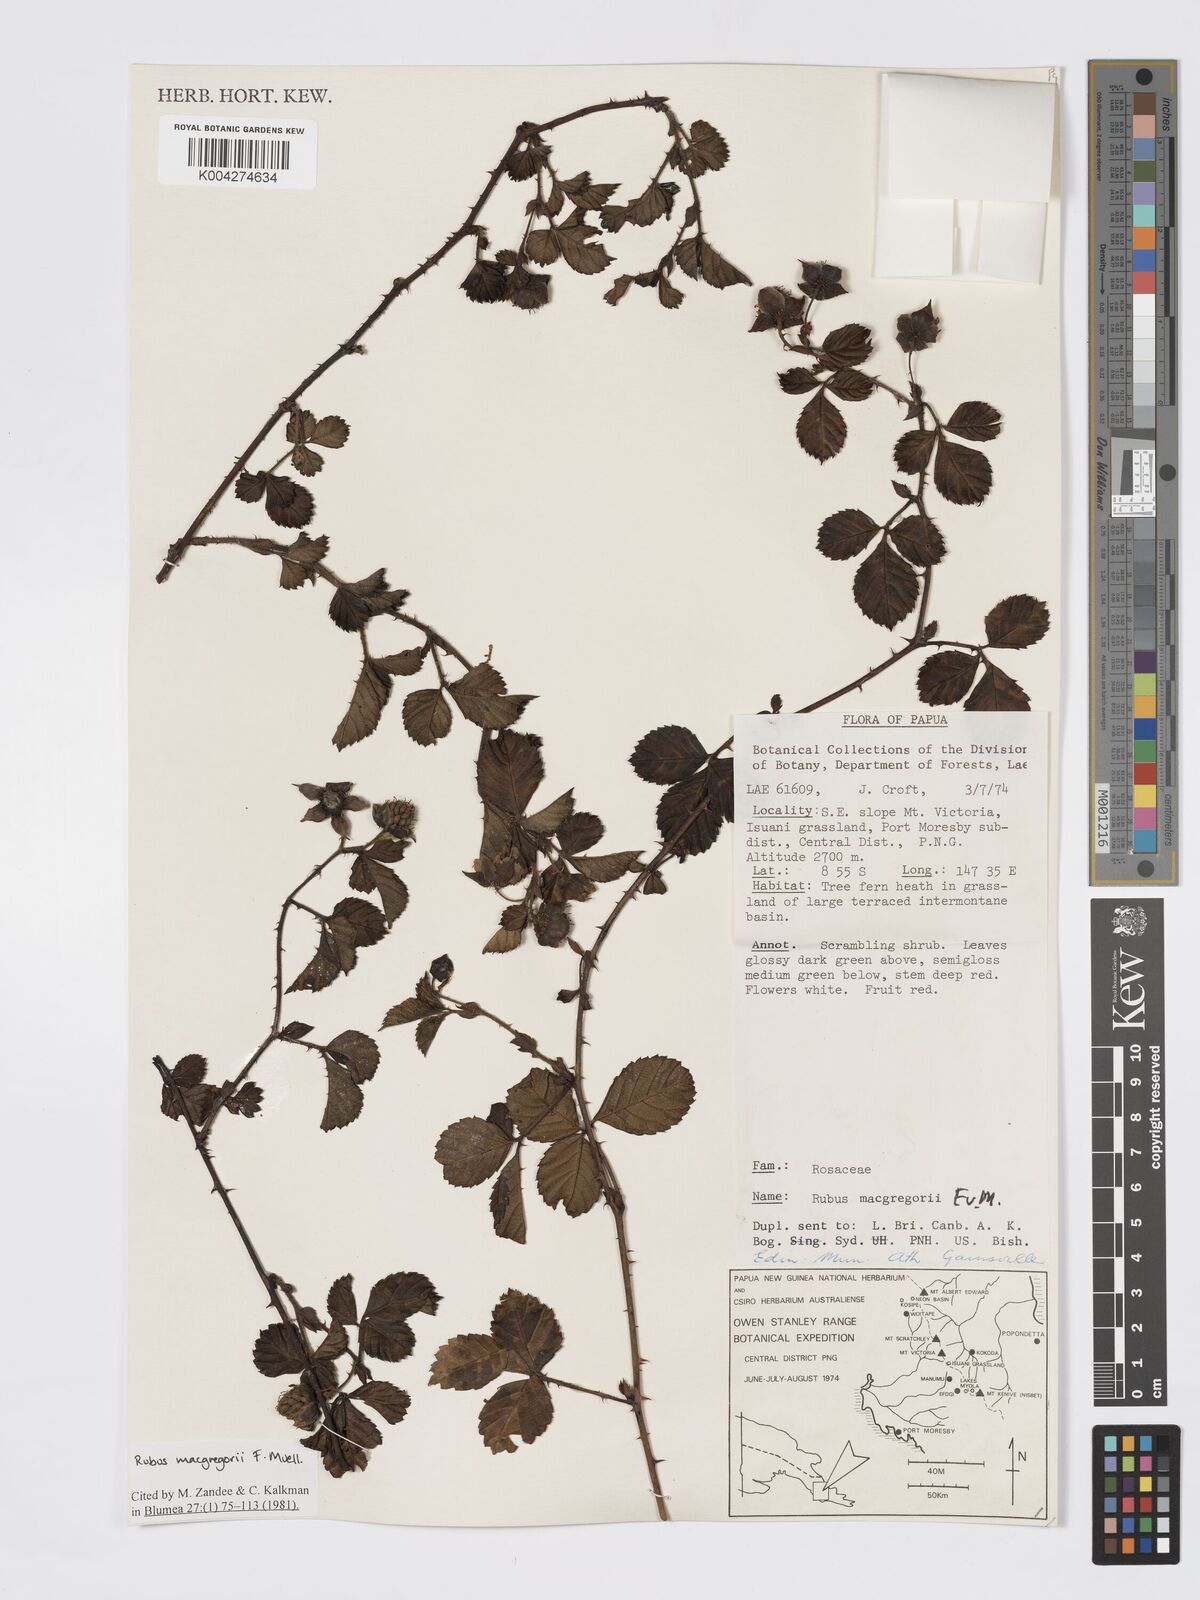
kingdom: Plantae
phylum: Tracheophyta
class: Magnoliopsida
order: Rosales
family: Rosaceae
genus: Rubus
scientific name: Rubus macgregorii
